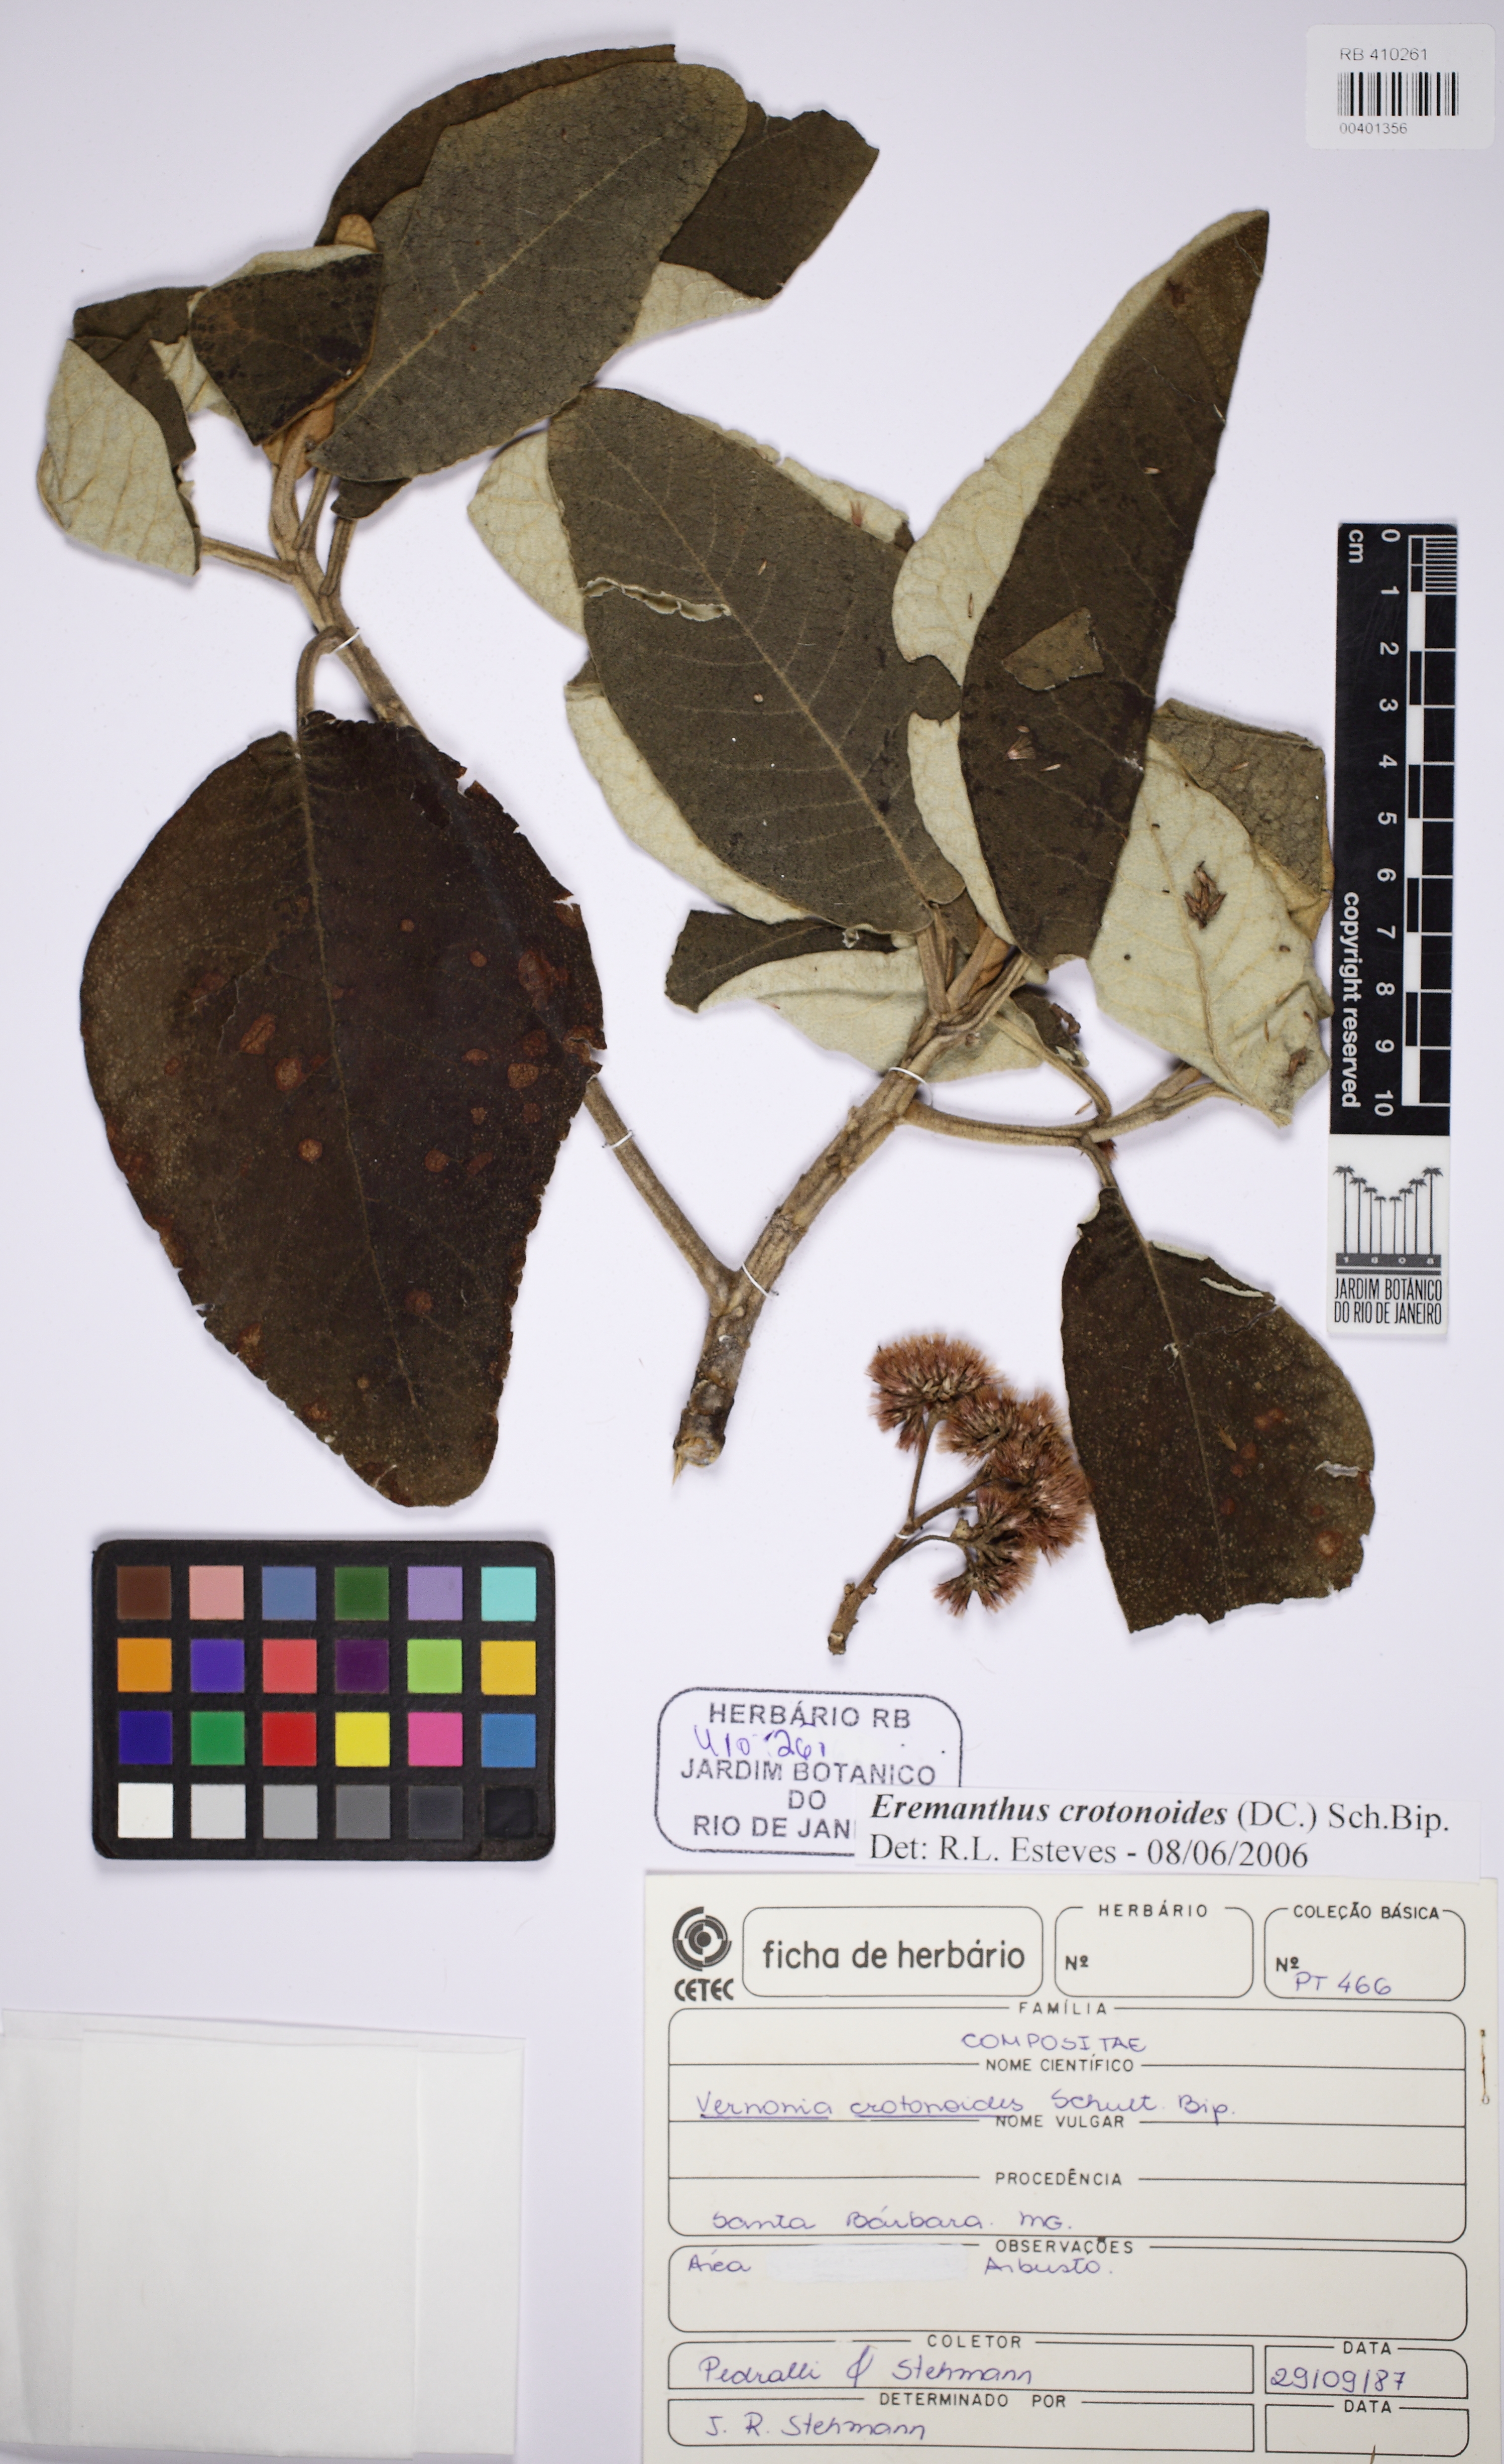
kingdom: Plantae
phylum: Tracheophyta
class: Magnoliopsida
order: Asterales
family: Asteraceae
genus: Eremanthus
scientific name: Eremanthus crotonoides
